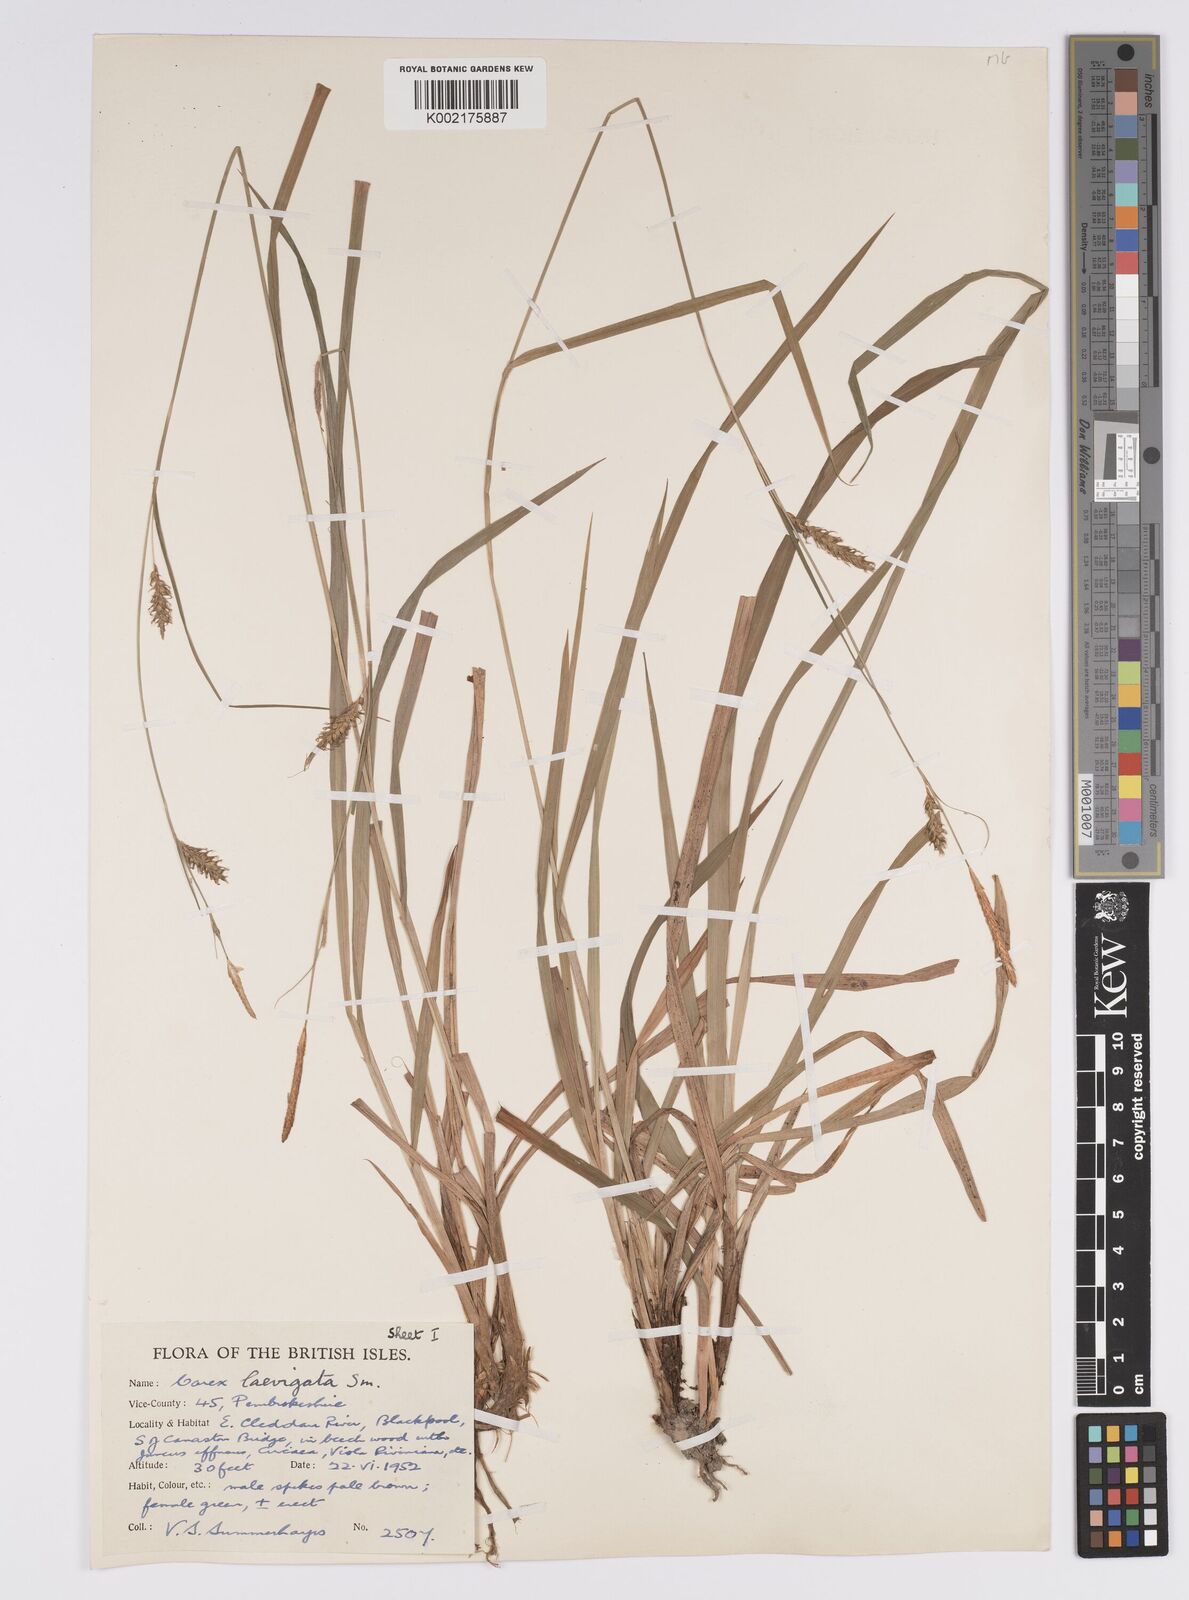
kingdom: Plantae
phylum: Tracheophyta
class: Liliopsida
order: Poales
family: Cyperaceae
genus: Carex
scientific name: Carex laevigata
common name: Smooth-stalked sedge
